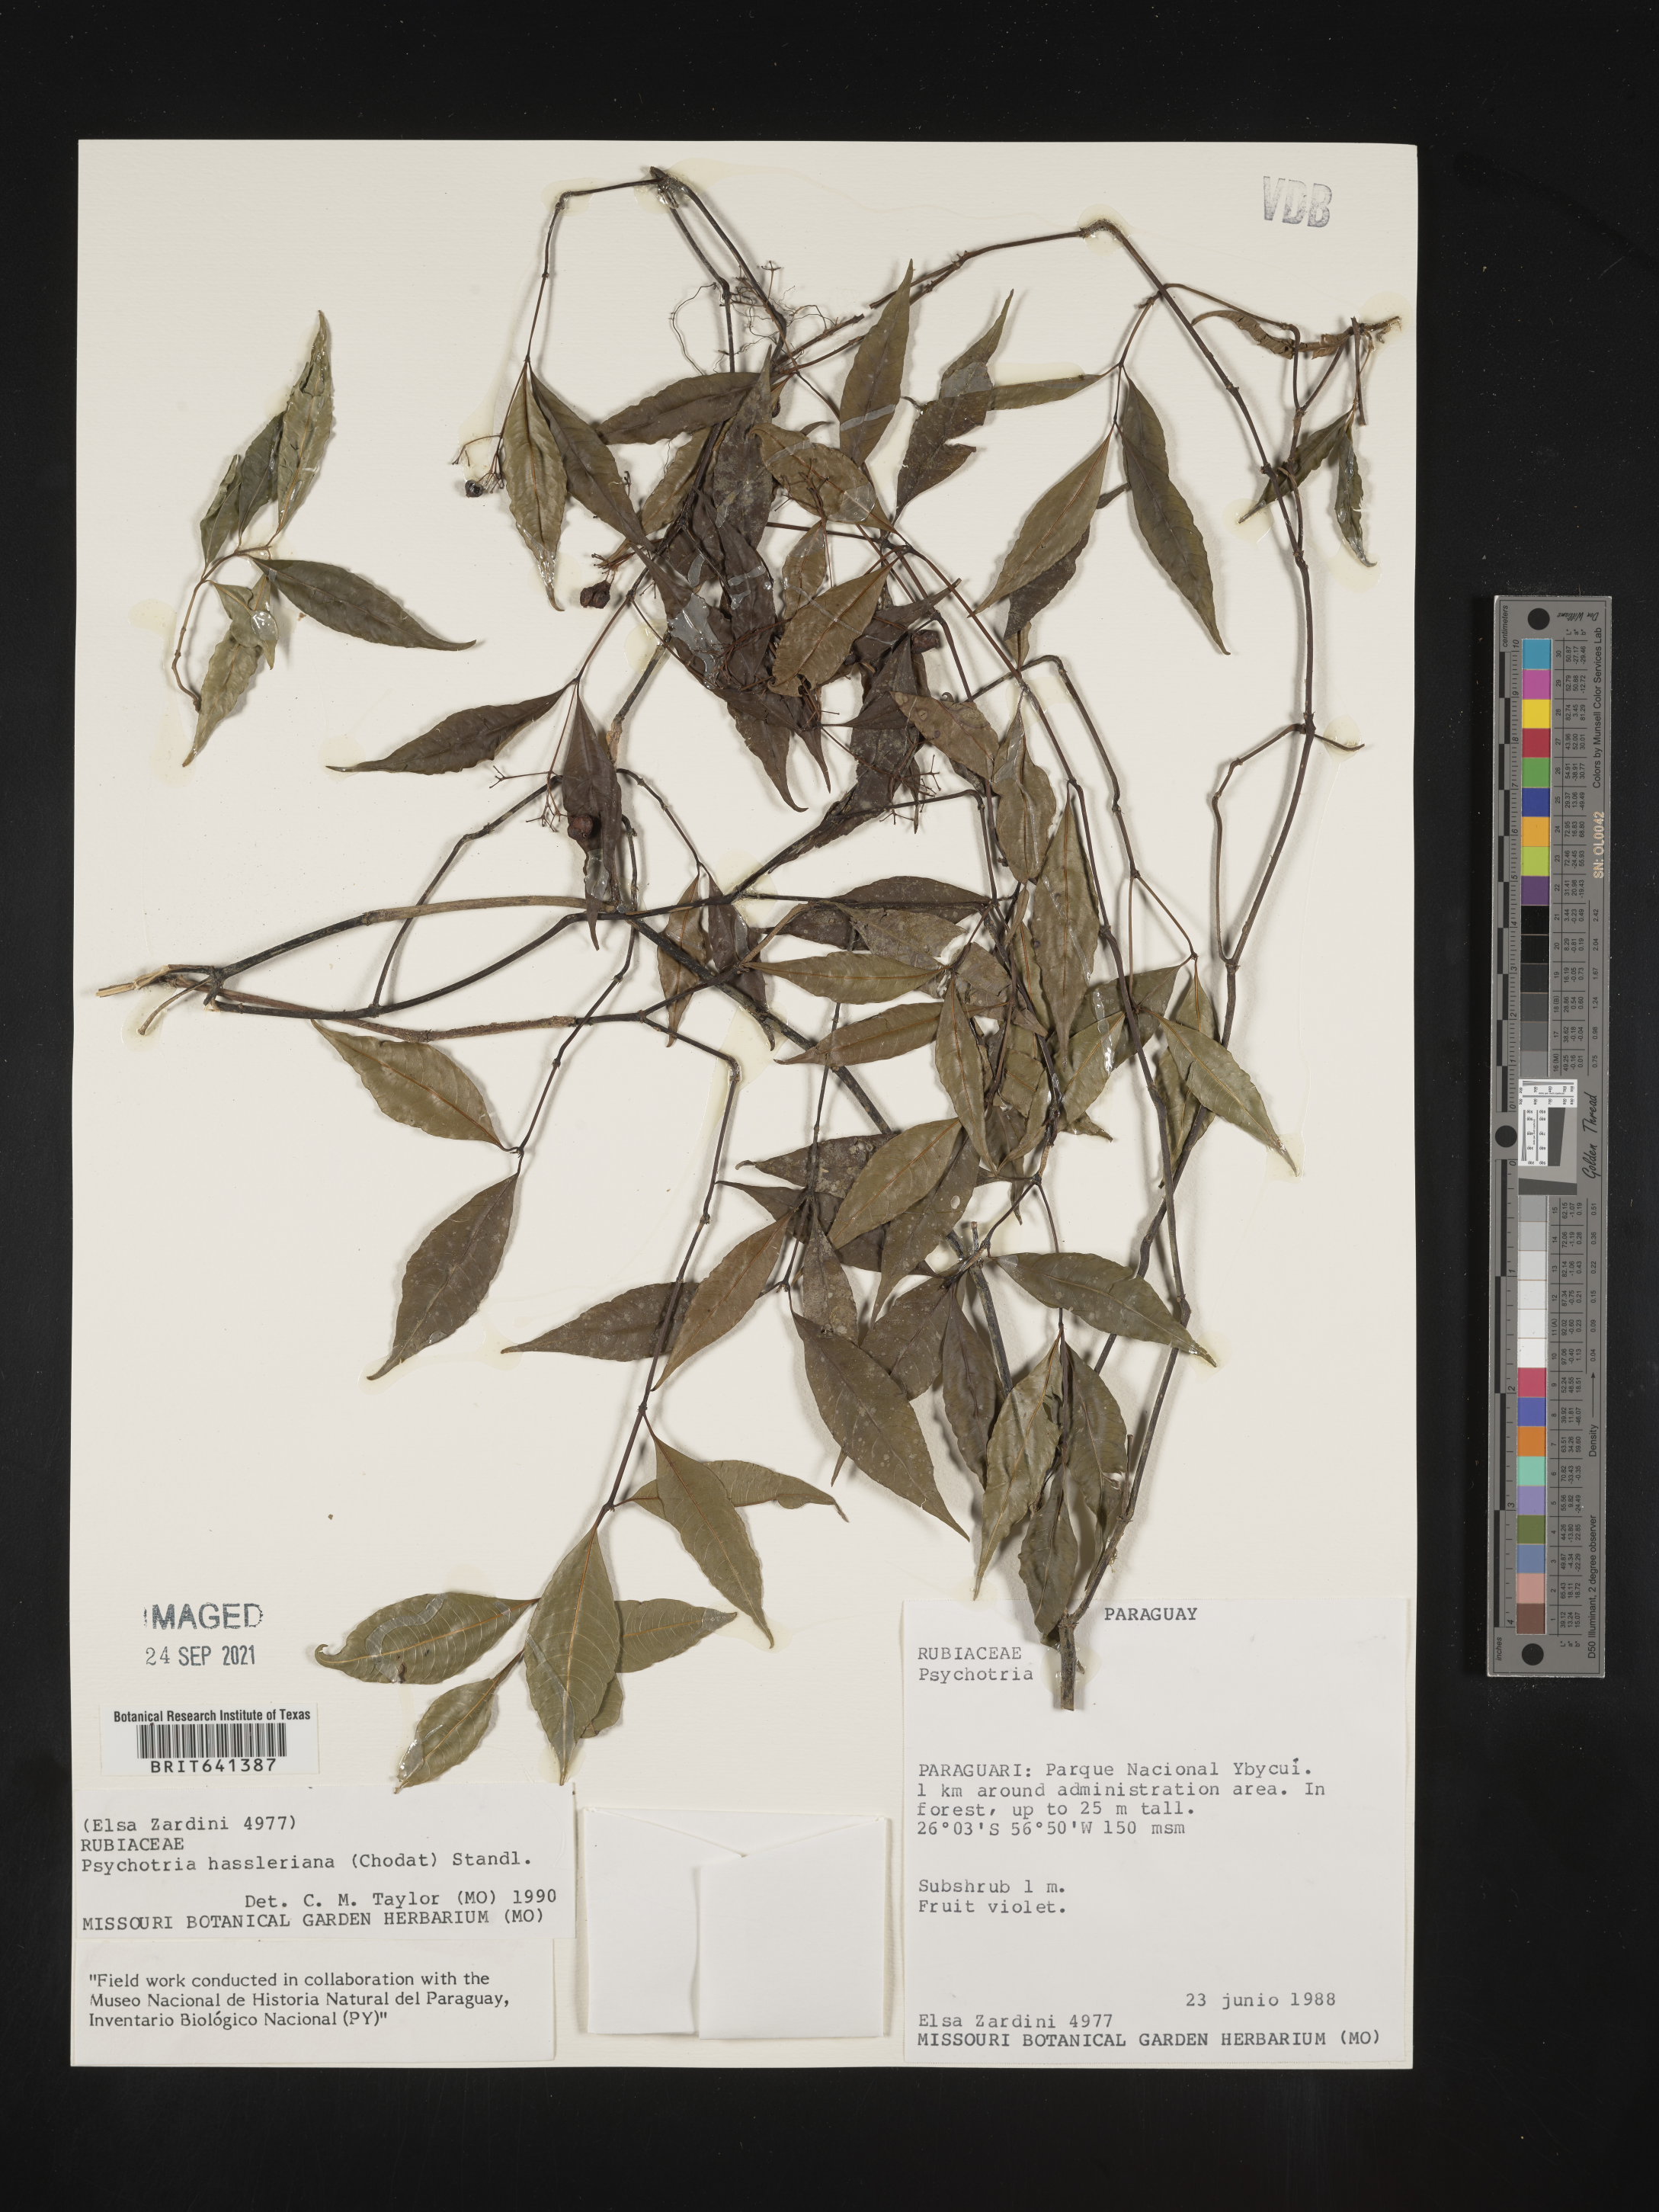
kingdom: Plantae
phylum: Tracheophyta
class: Magnoliopsida
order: Gentianales
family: Rubiaceae
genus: Psychotria
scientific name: Psychotria
